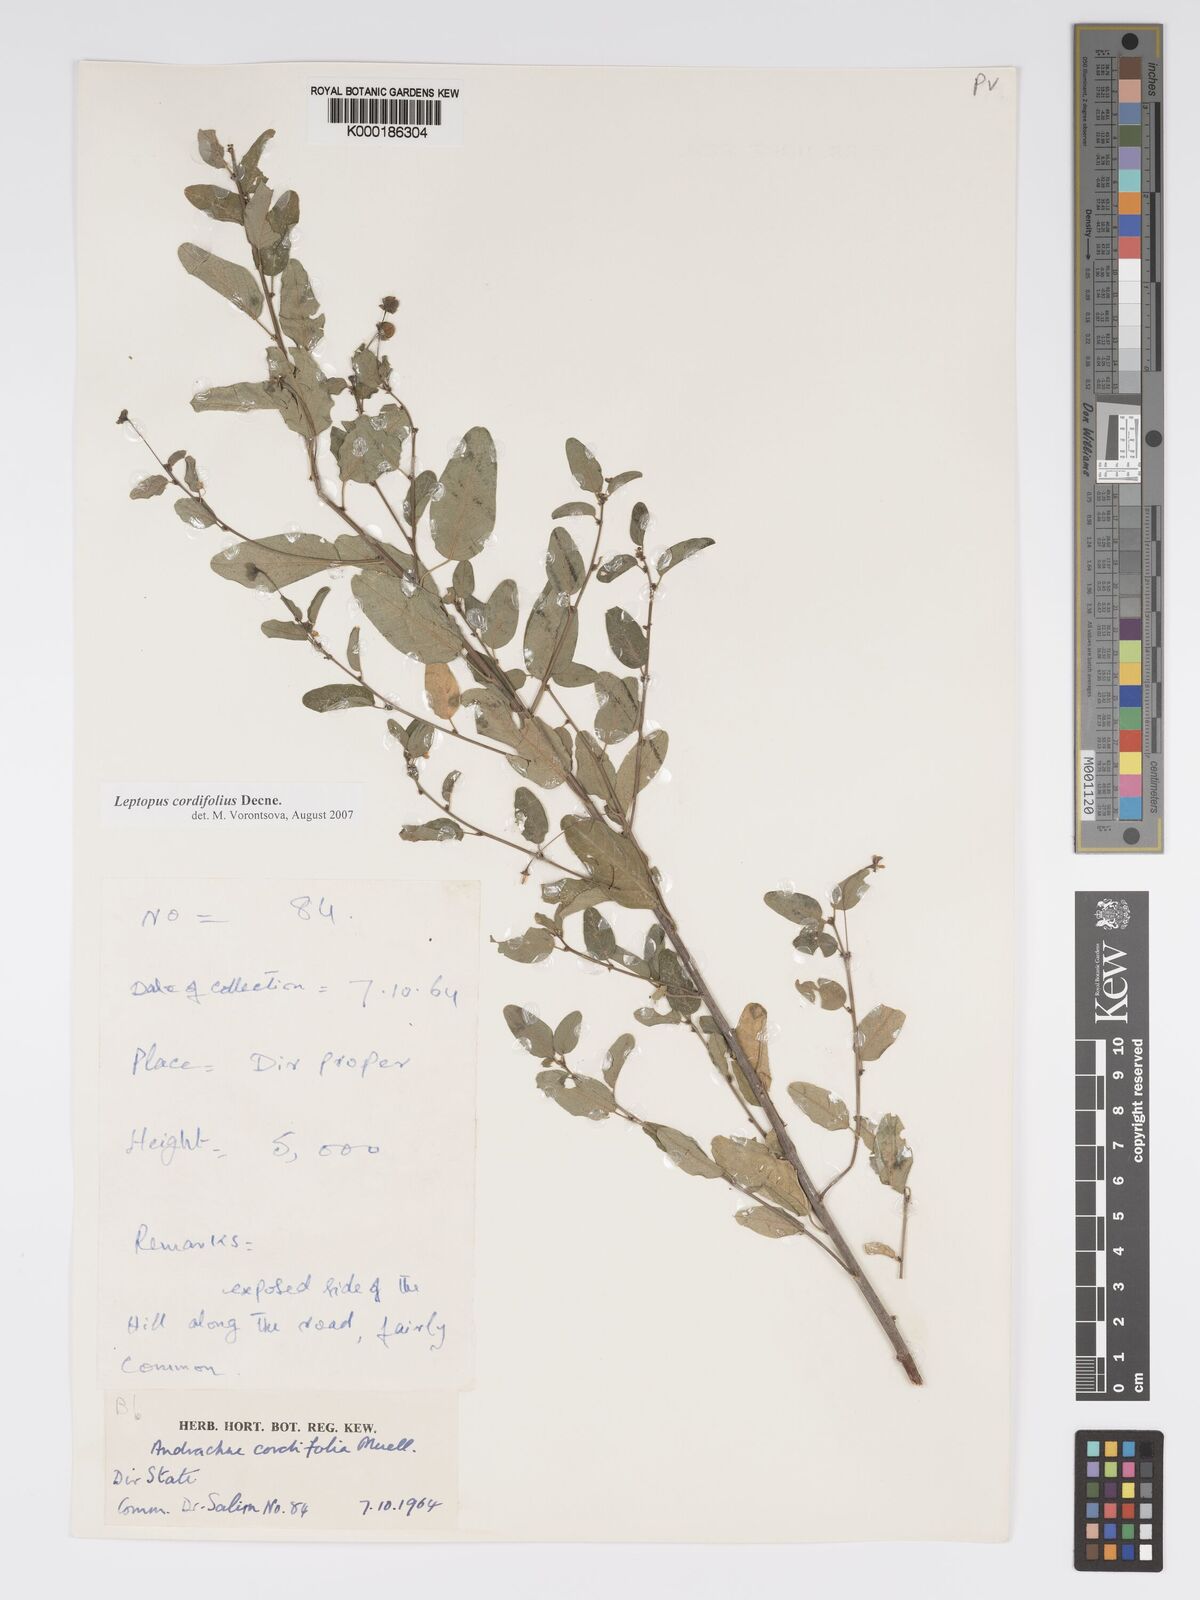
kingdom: Plantae
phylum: Tracheophyta
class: Magnoliopsida
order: Malpighiales
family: Phyllanthaceae
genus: Leptopus
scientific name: Leptopus cordifolius
